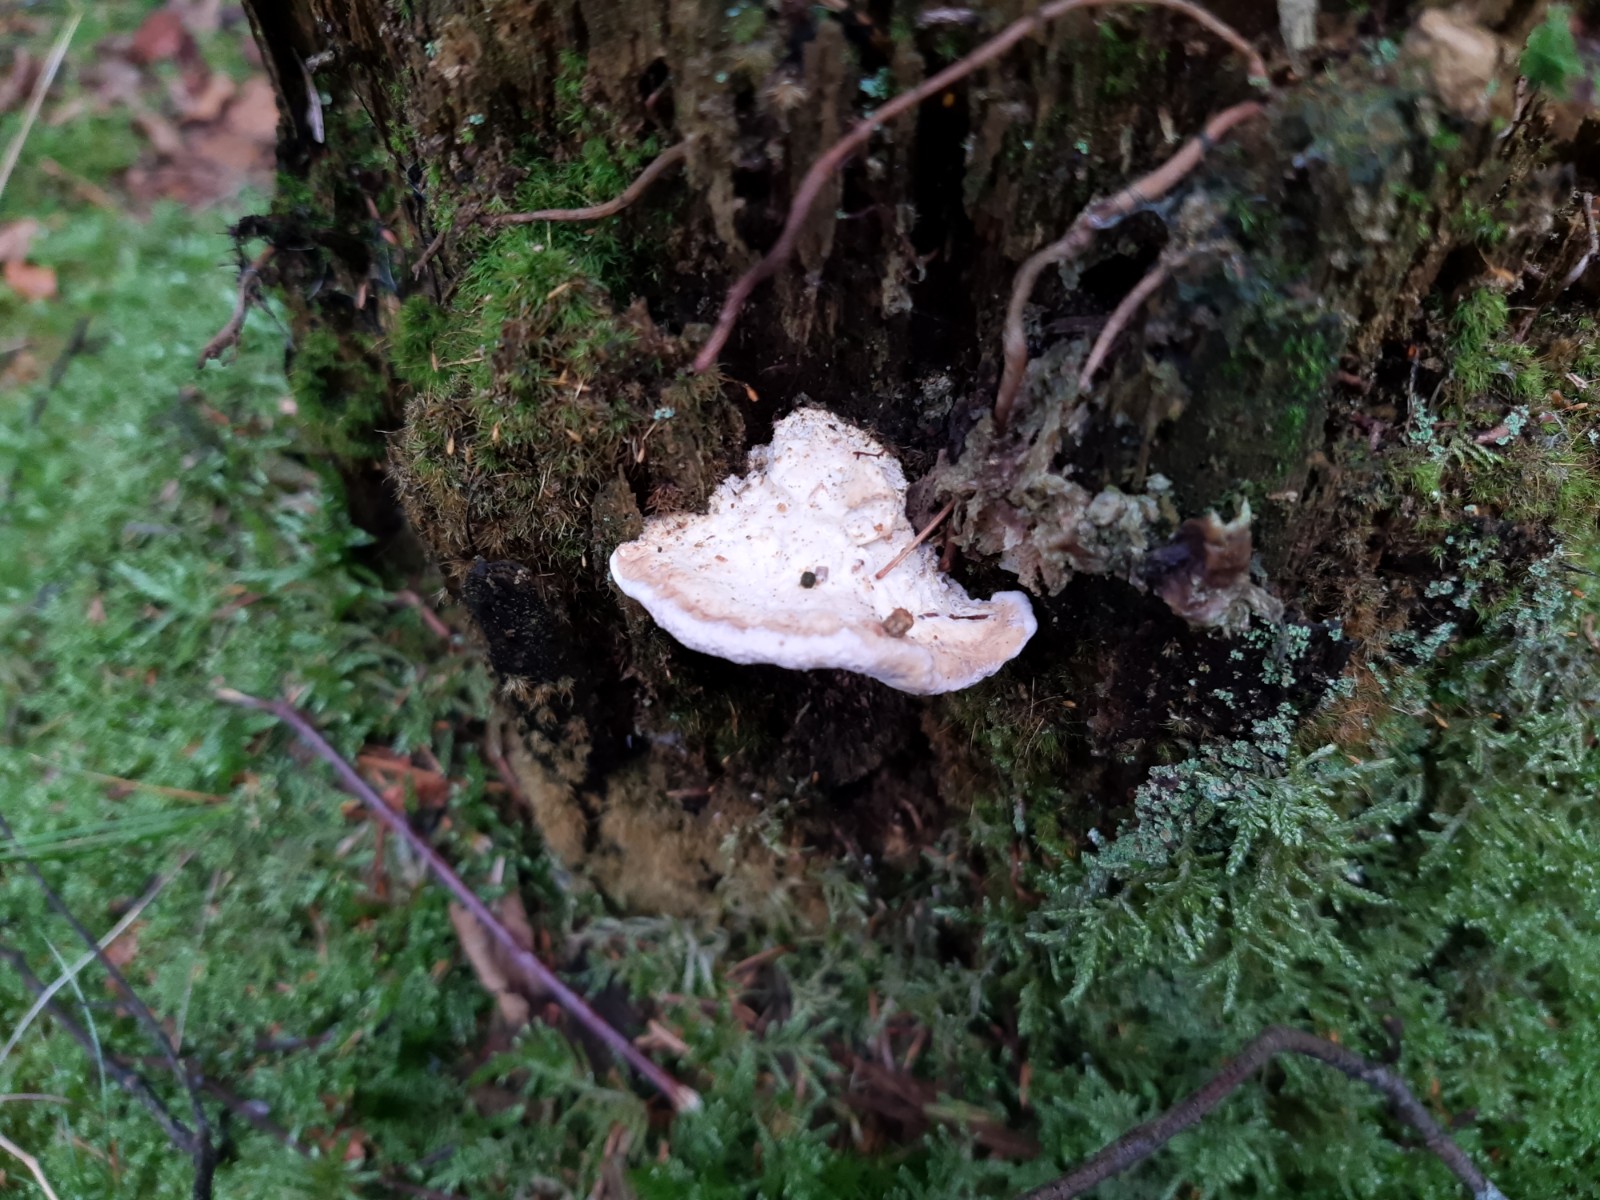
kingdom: Fungi
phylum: Basidiomycota
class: Agaricomycetes
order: Polyporales
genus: Calcipostia
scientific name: Calcipostia guttulata
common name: dråbe-kødporesvamp
